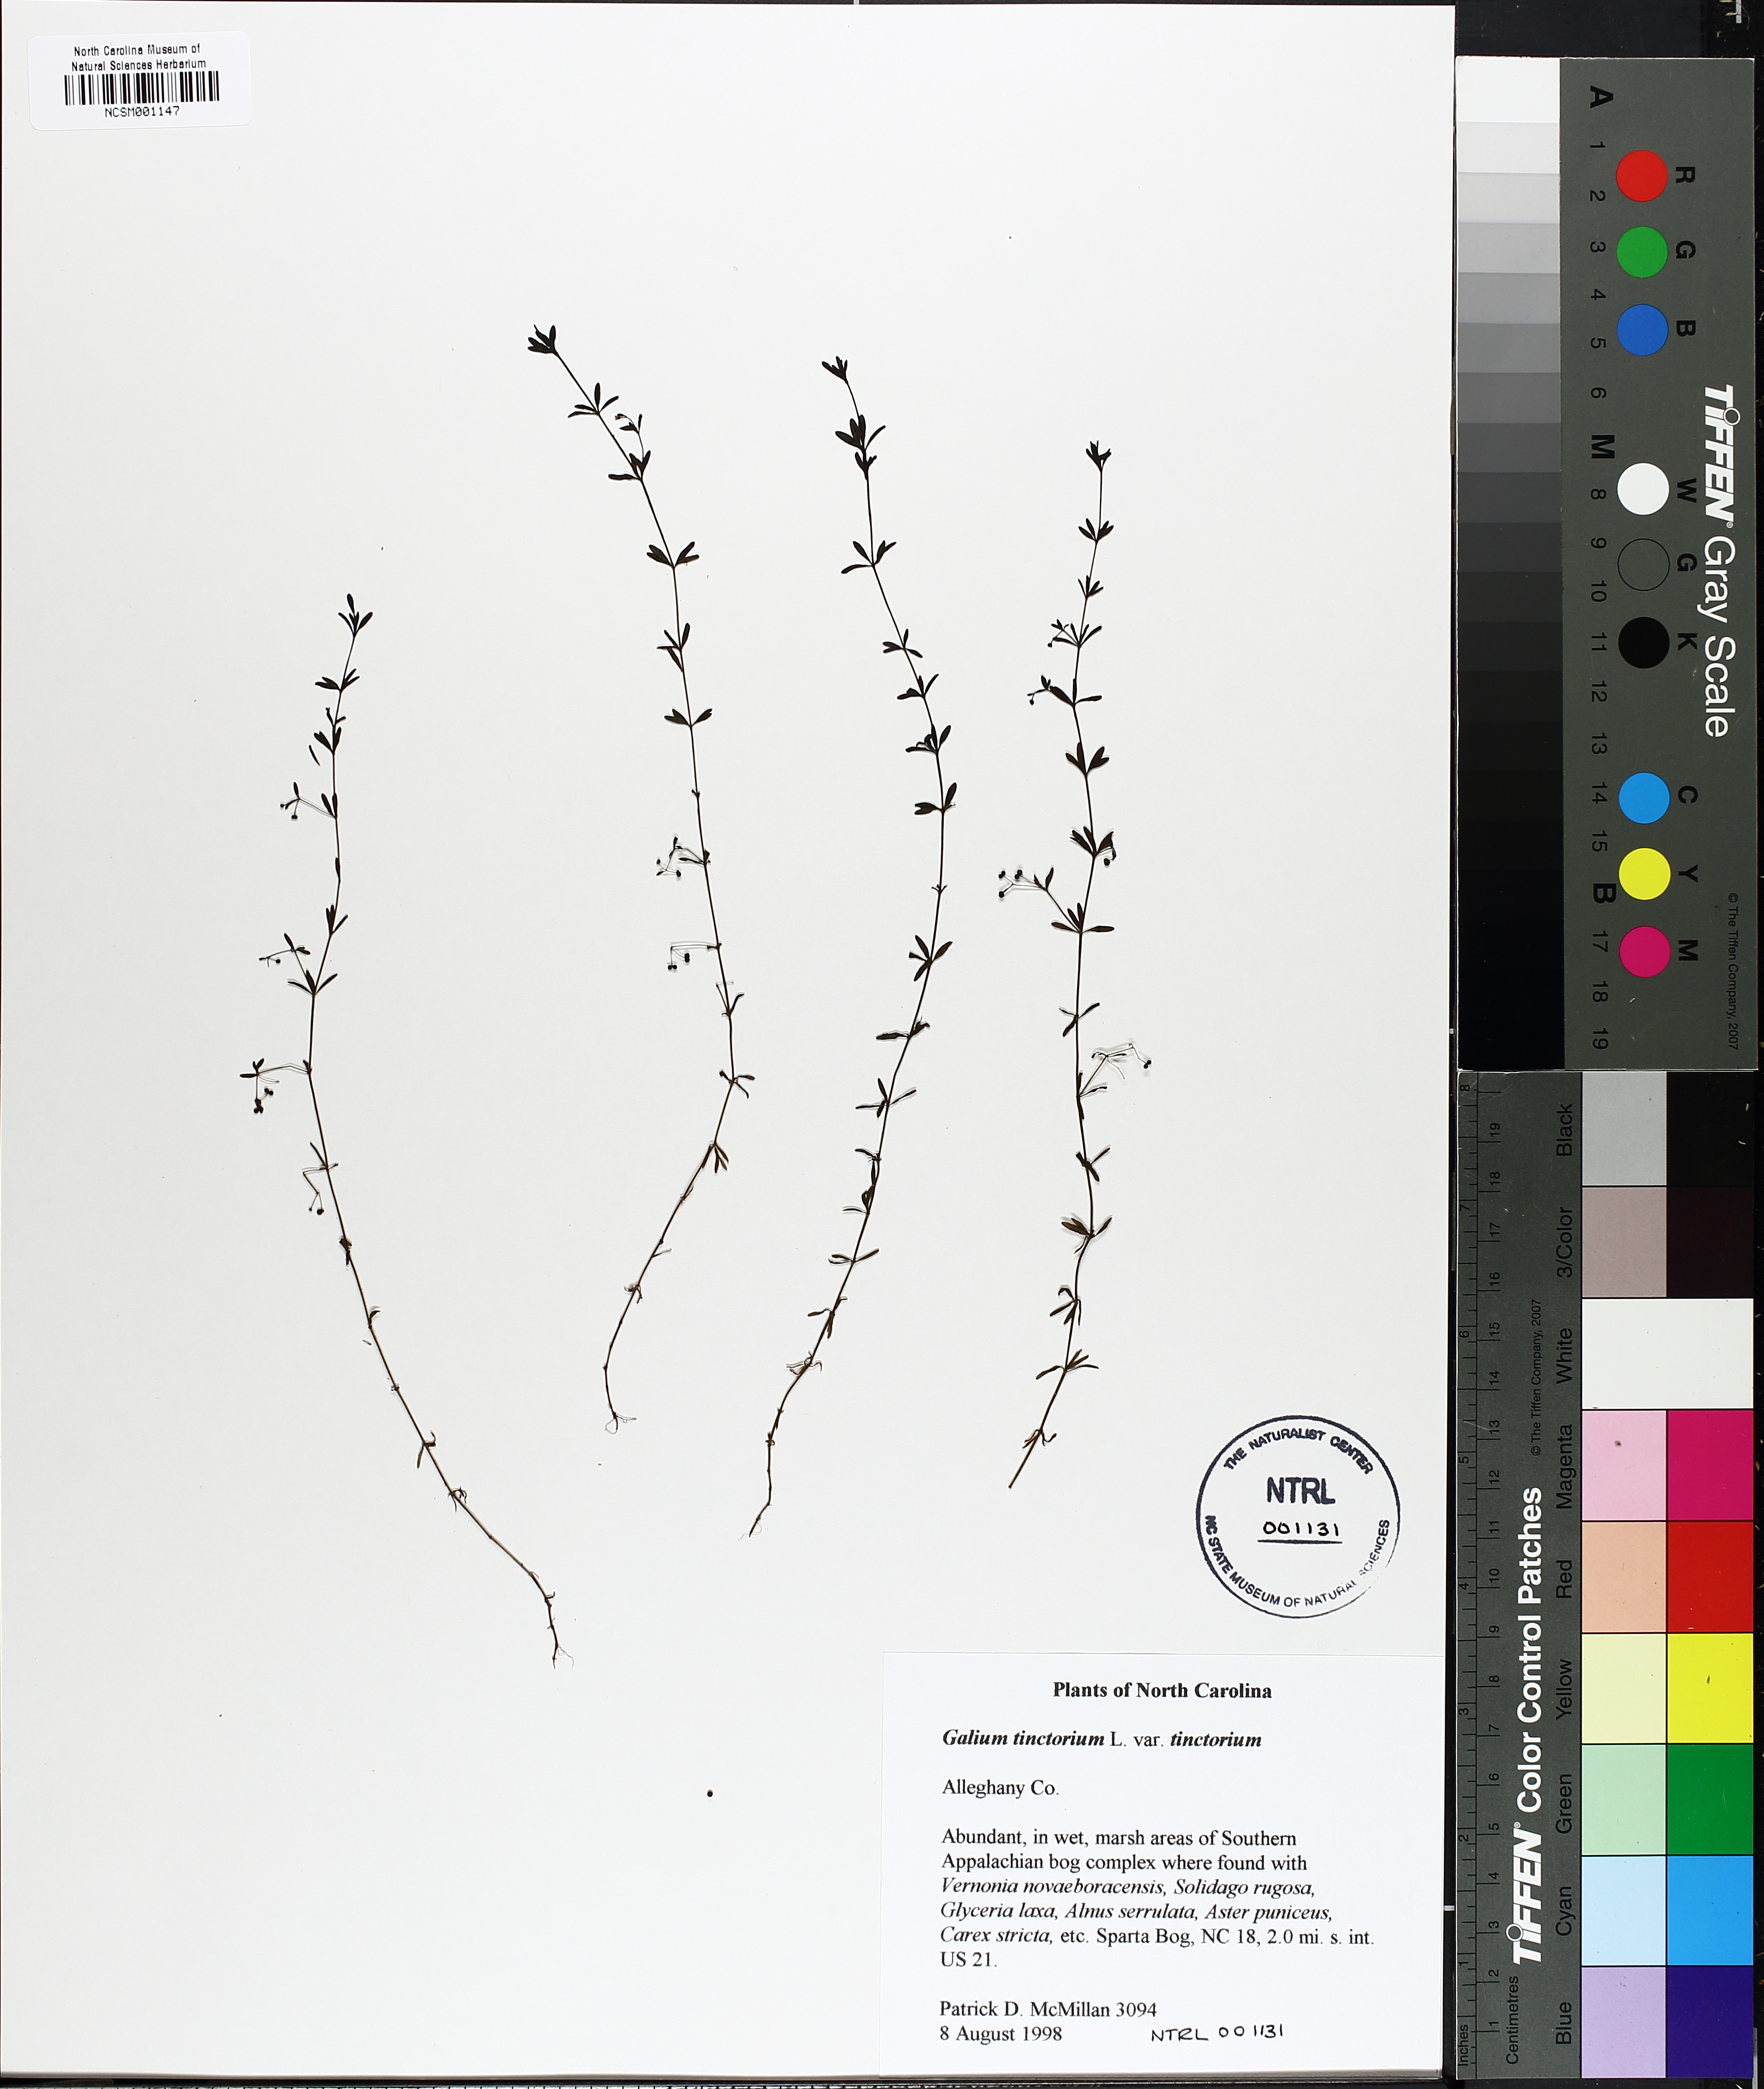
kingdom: Plantae
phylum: Tracheophyta
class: Magnoliopsida
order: Gentianales
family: Rubiaceae
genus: Galium
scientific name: Galium tinctorium
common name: Bedstraw
